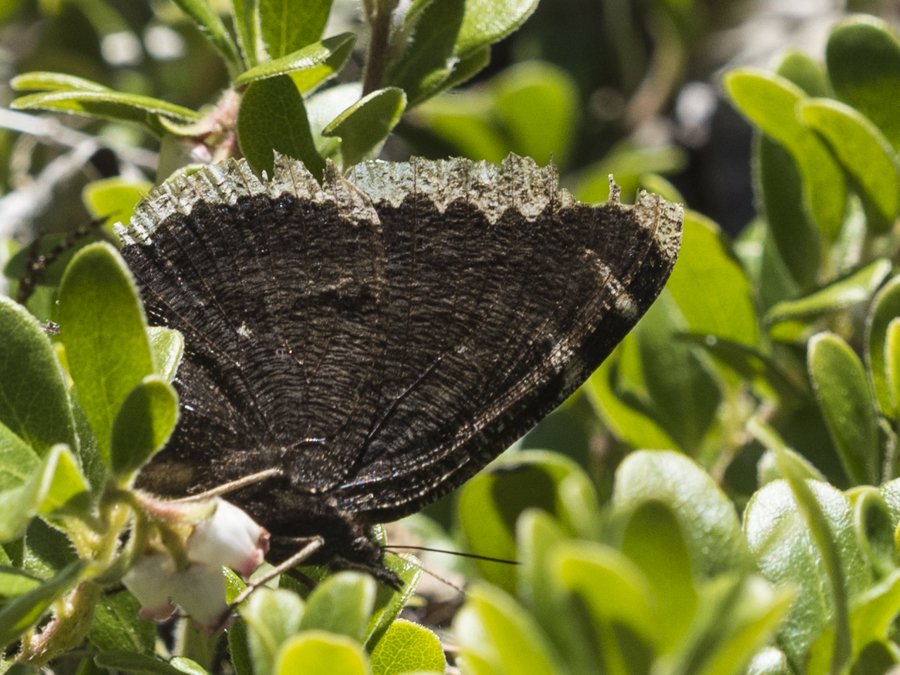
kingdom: Animalia
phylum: Arthropoda
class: Insecta
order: Lepidoptera
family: Nymphalidae
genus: Nymphalis
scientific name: Nymphalis antiopa
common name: Mourning Cloak
